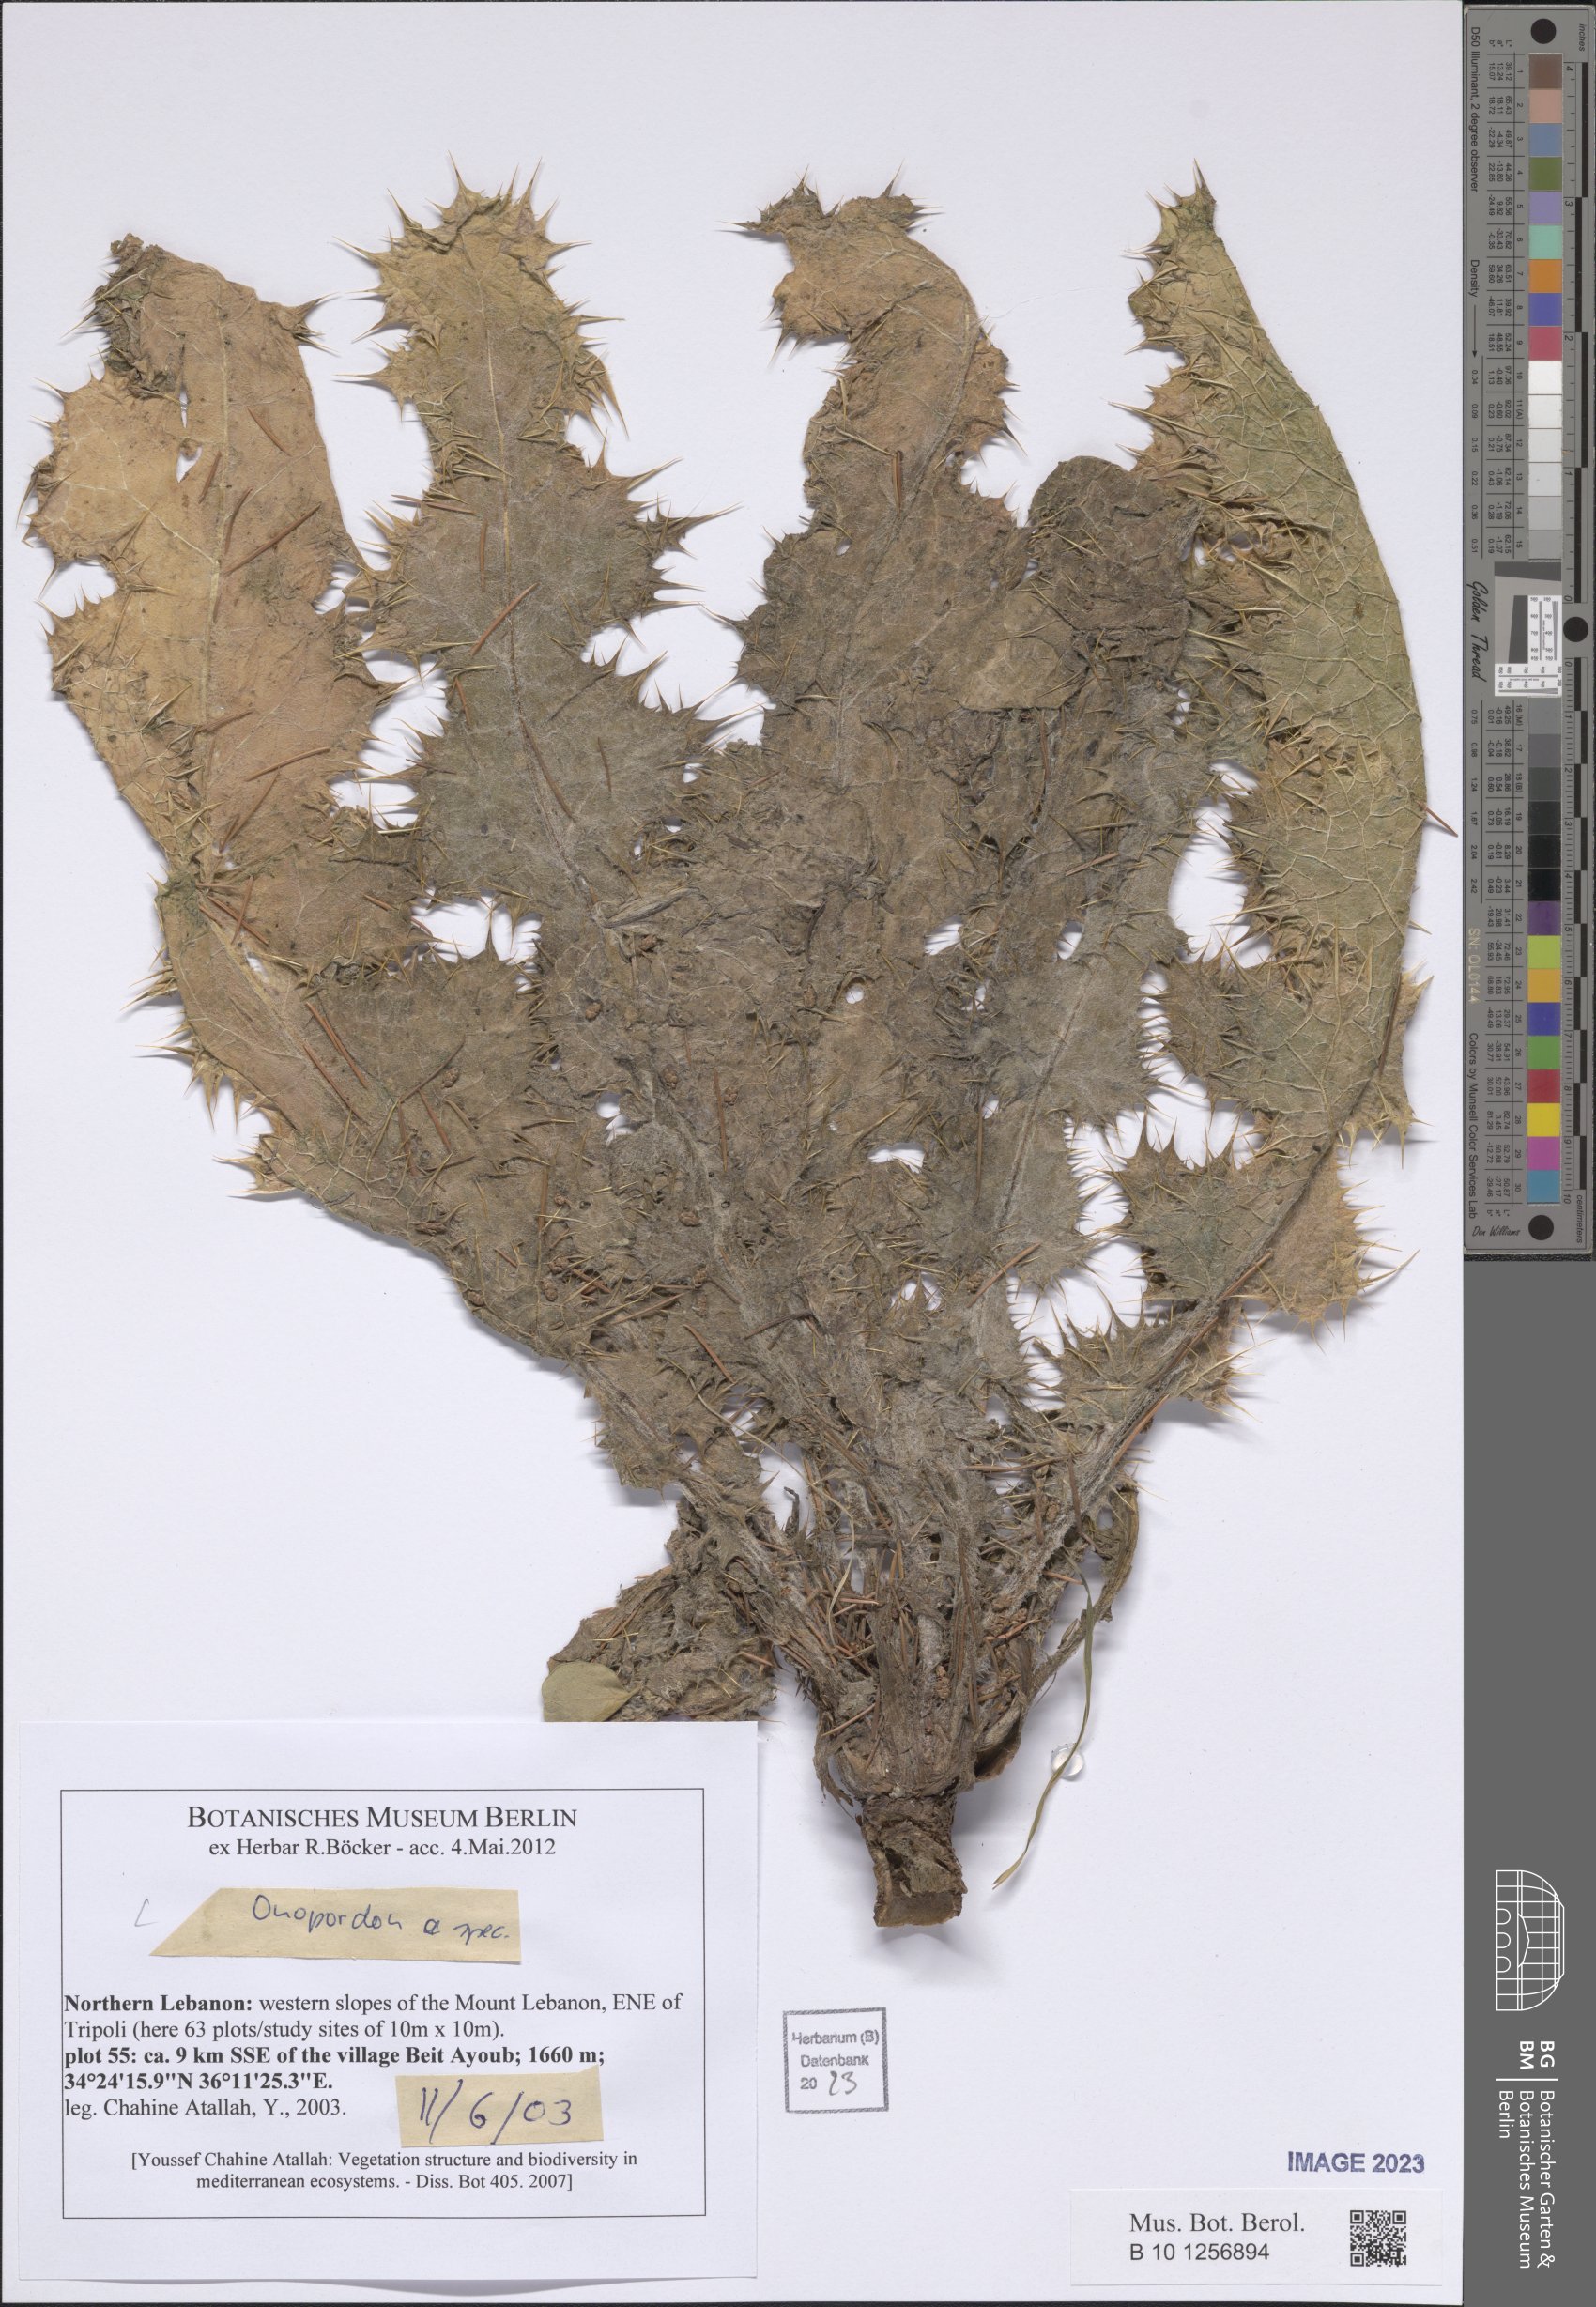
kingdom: Plantae
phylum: Tracheophyta
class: Magnoliopsida
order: Asterales
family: Asteraceae
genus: Onopordum
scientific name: Onopordum
